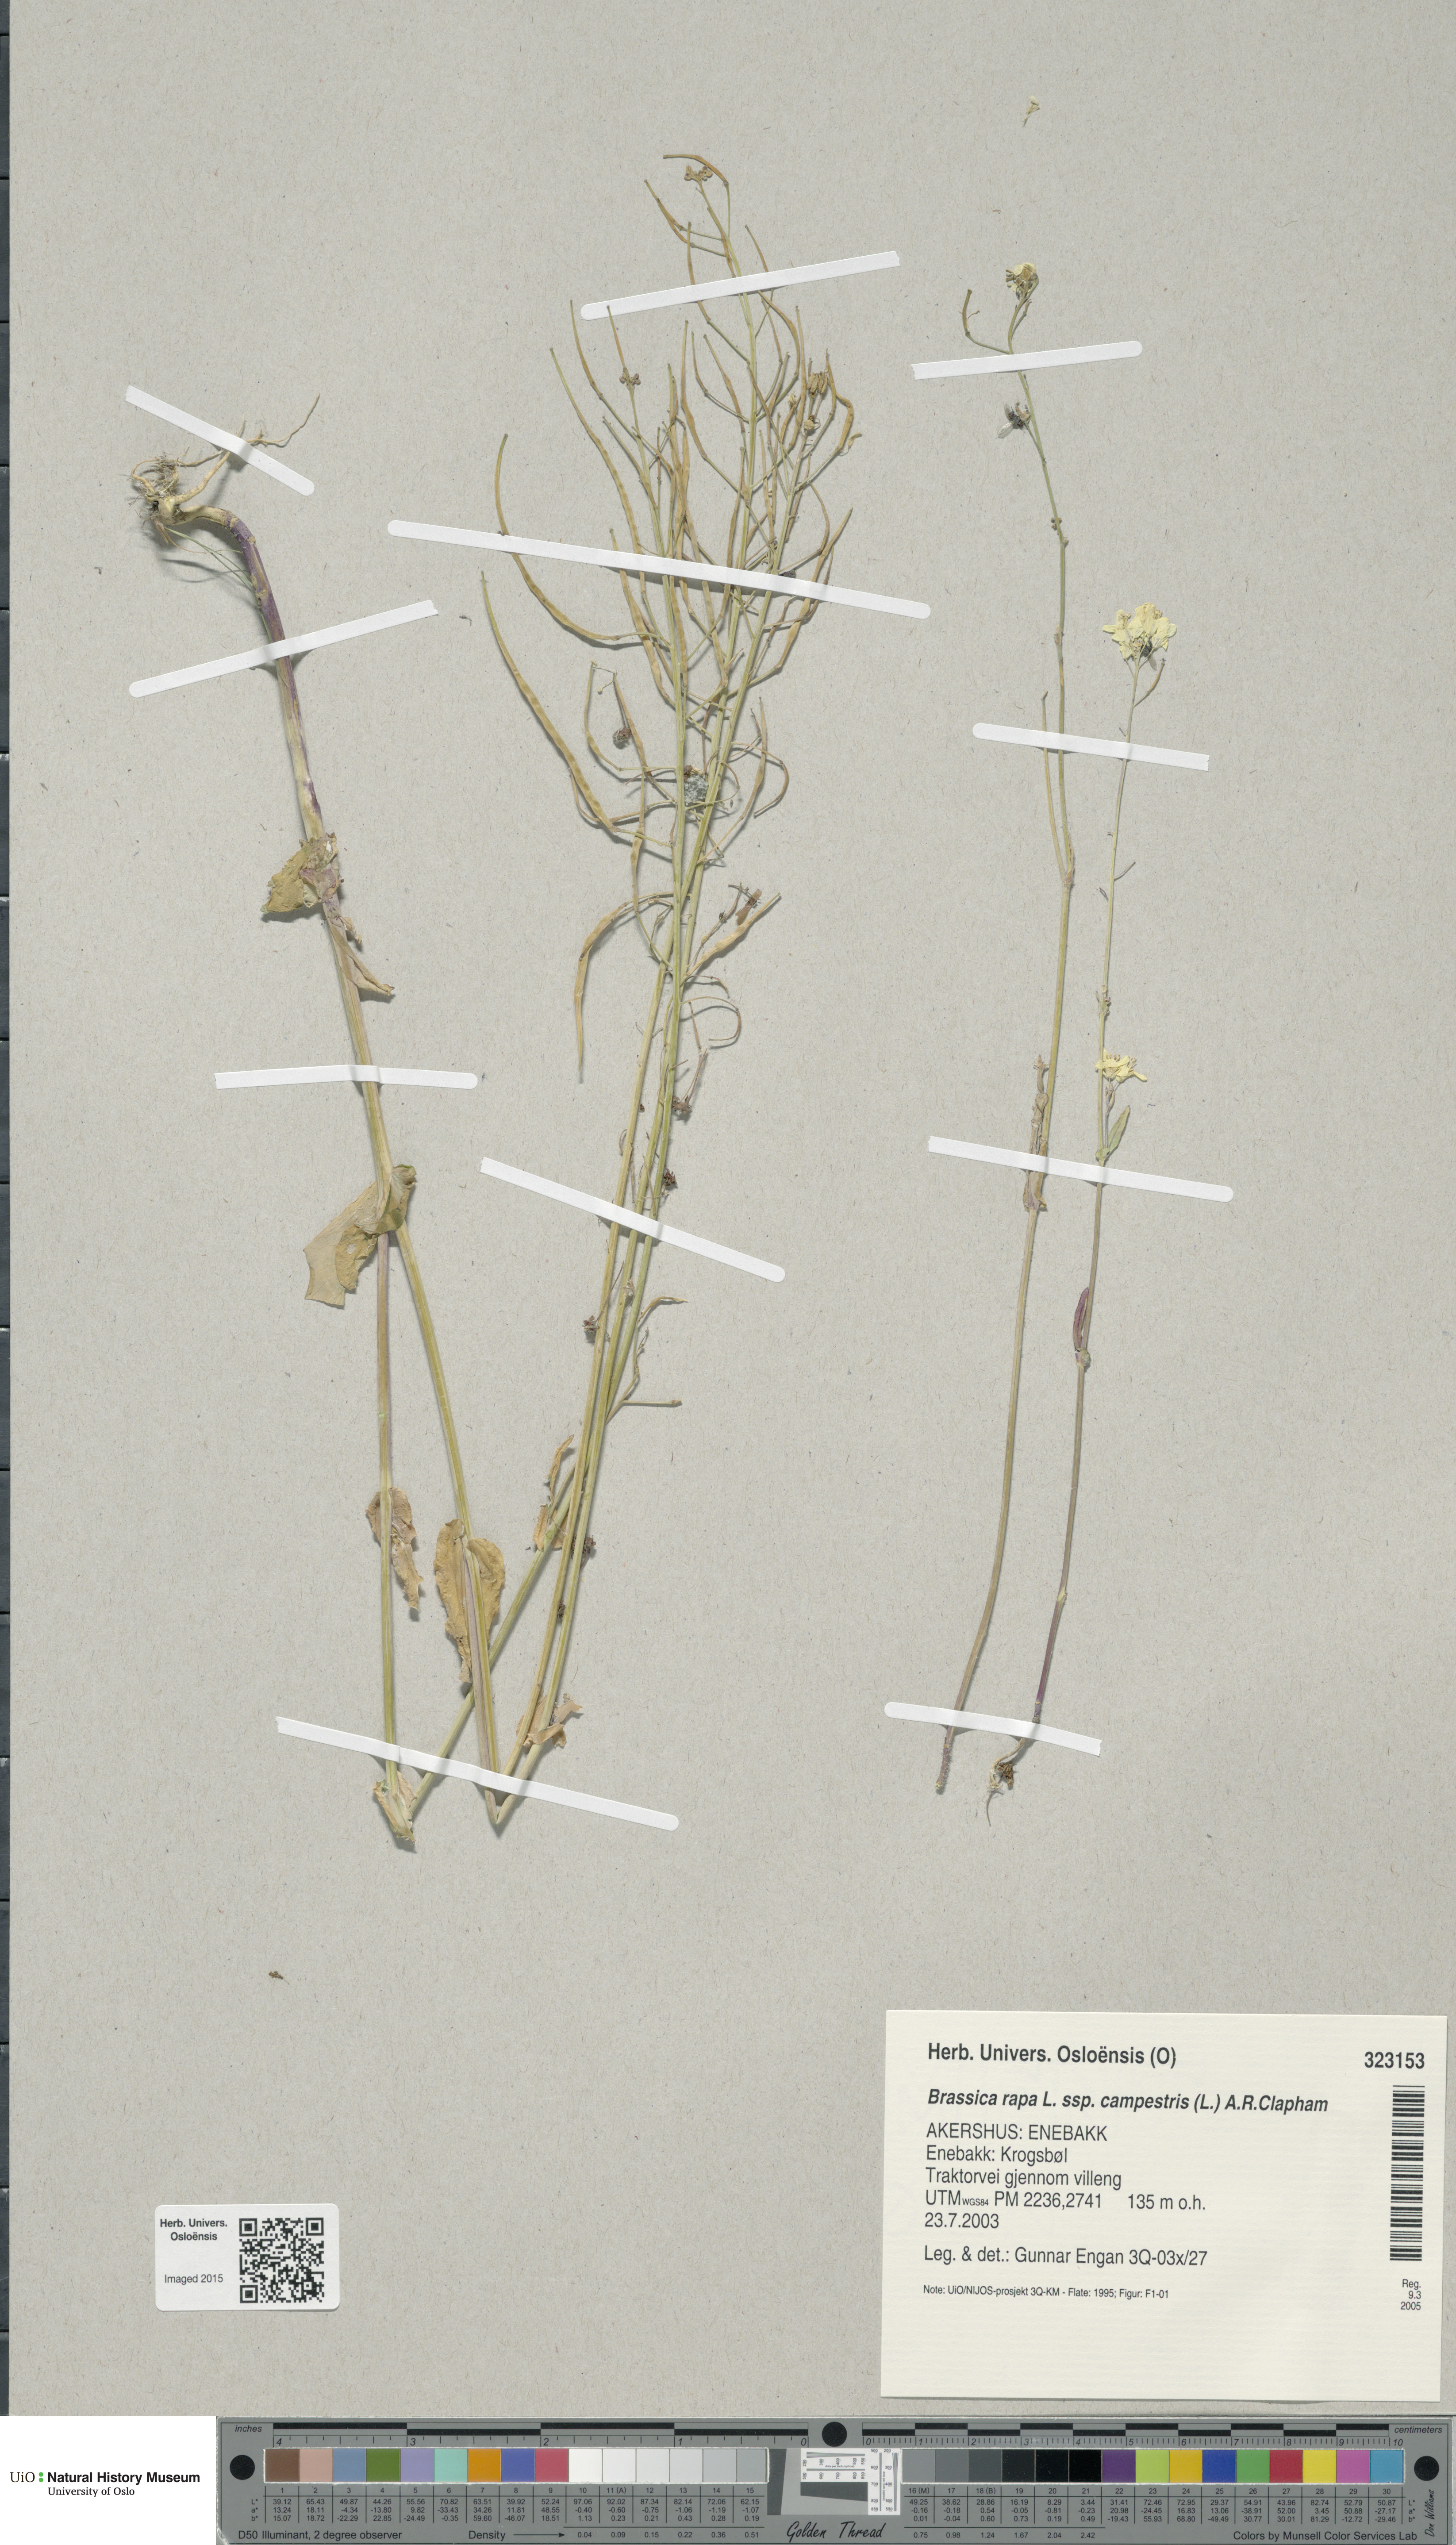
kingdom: Plantae
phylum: Tracheophyta
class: Magnoliopsida
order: Brassicales
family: Brassicaceae
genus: Brassica
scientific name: Brassica rapa
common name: Field mustard
